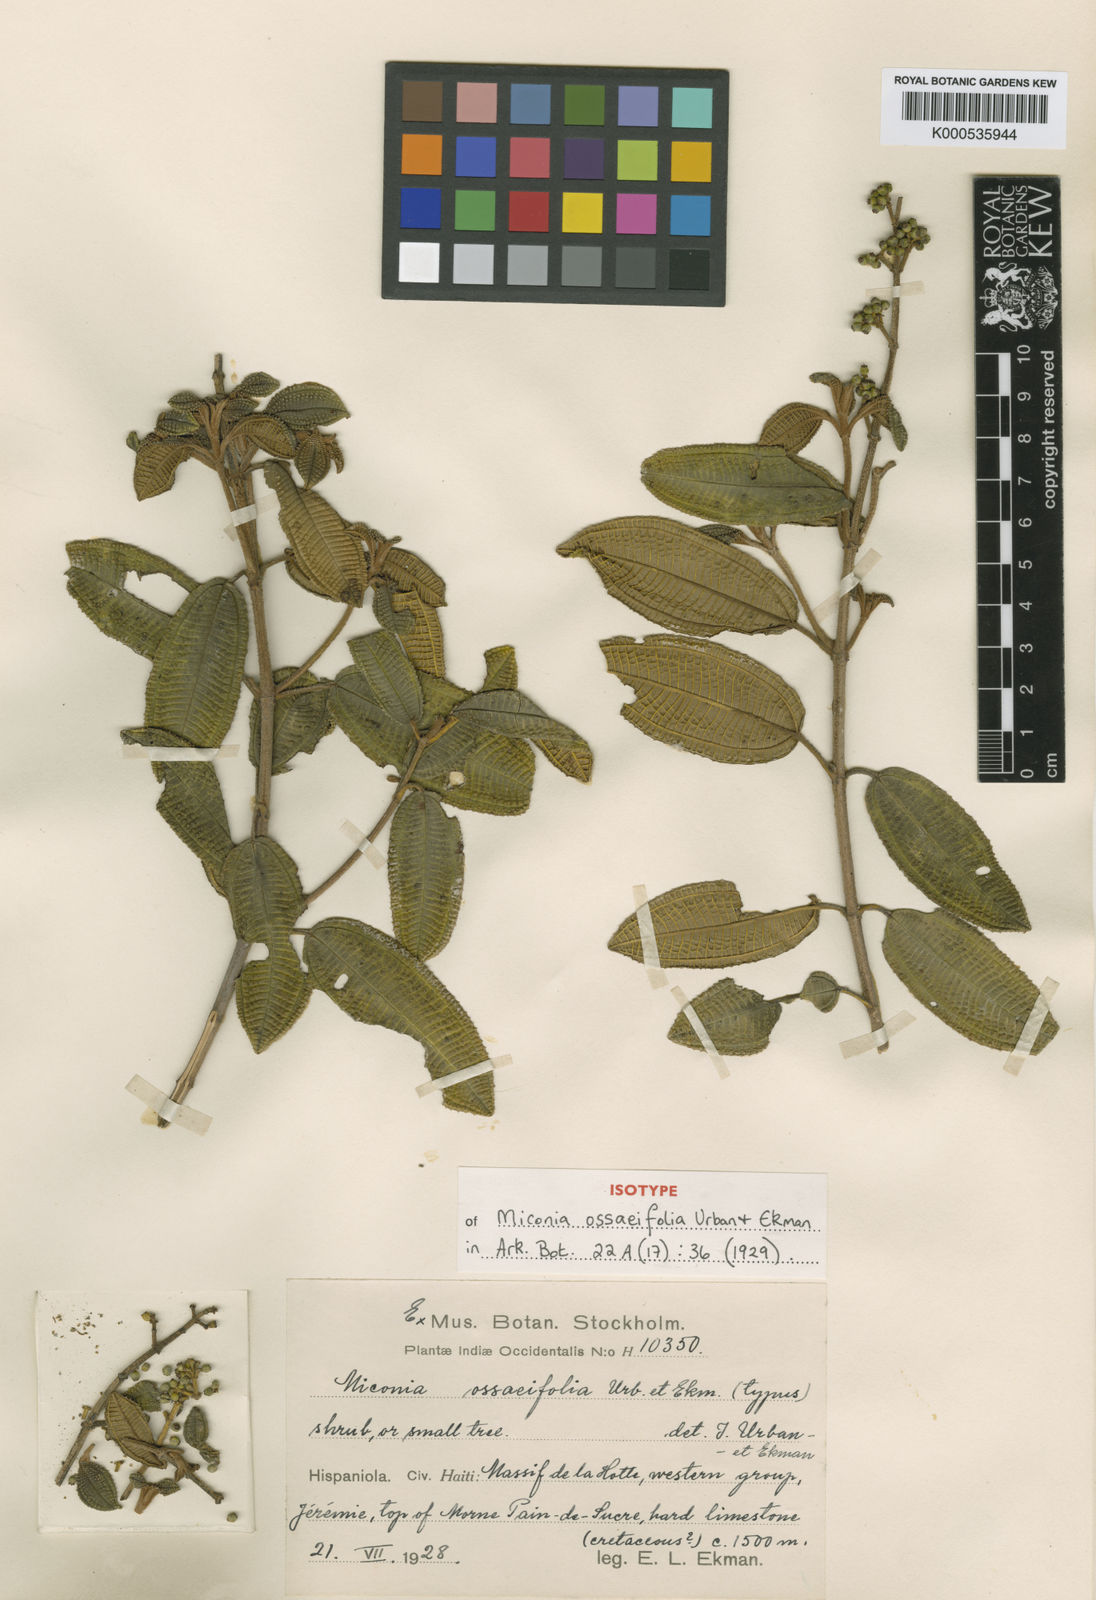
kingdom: Plantae
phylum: Tracheophyta
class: Magnoliopsida
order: Myrtales
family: Melastomataceae
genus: Miconia
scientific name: Miconia ossaeifolia
